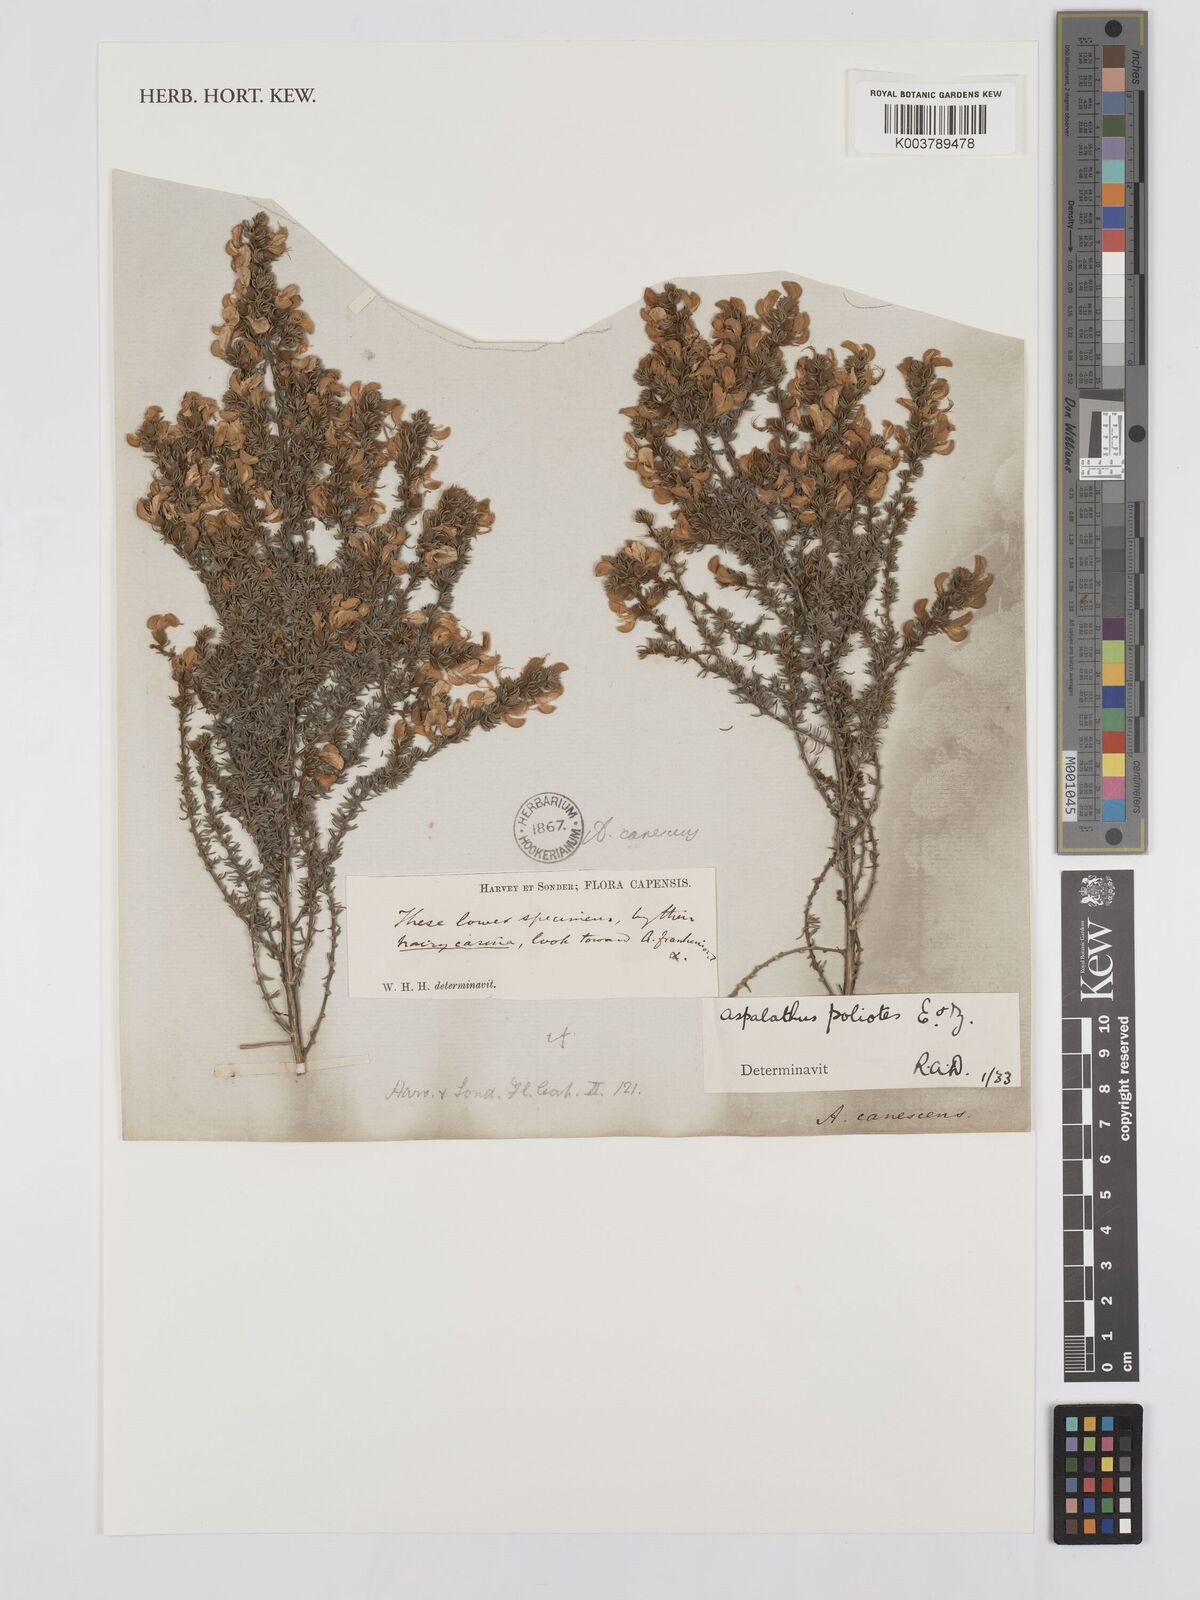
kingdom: Plantae
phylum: Tracheophyta
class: Magnoliopsida
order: Fabales
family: Fabaceae
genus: Aspalathus
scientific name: Aspalathus laricifolia
